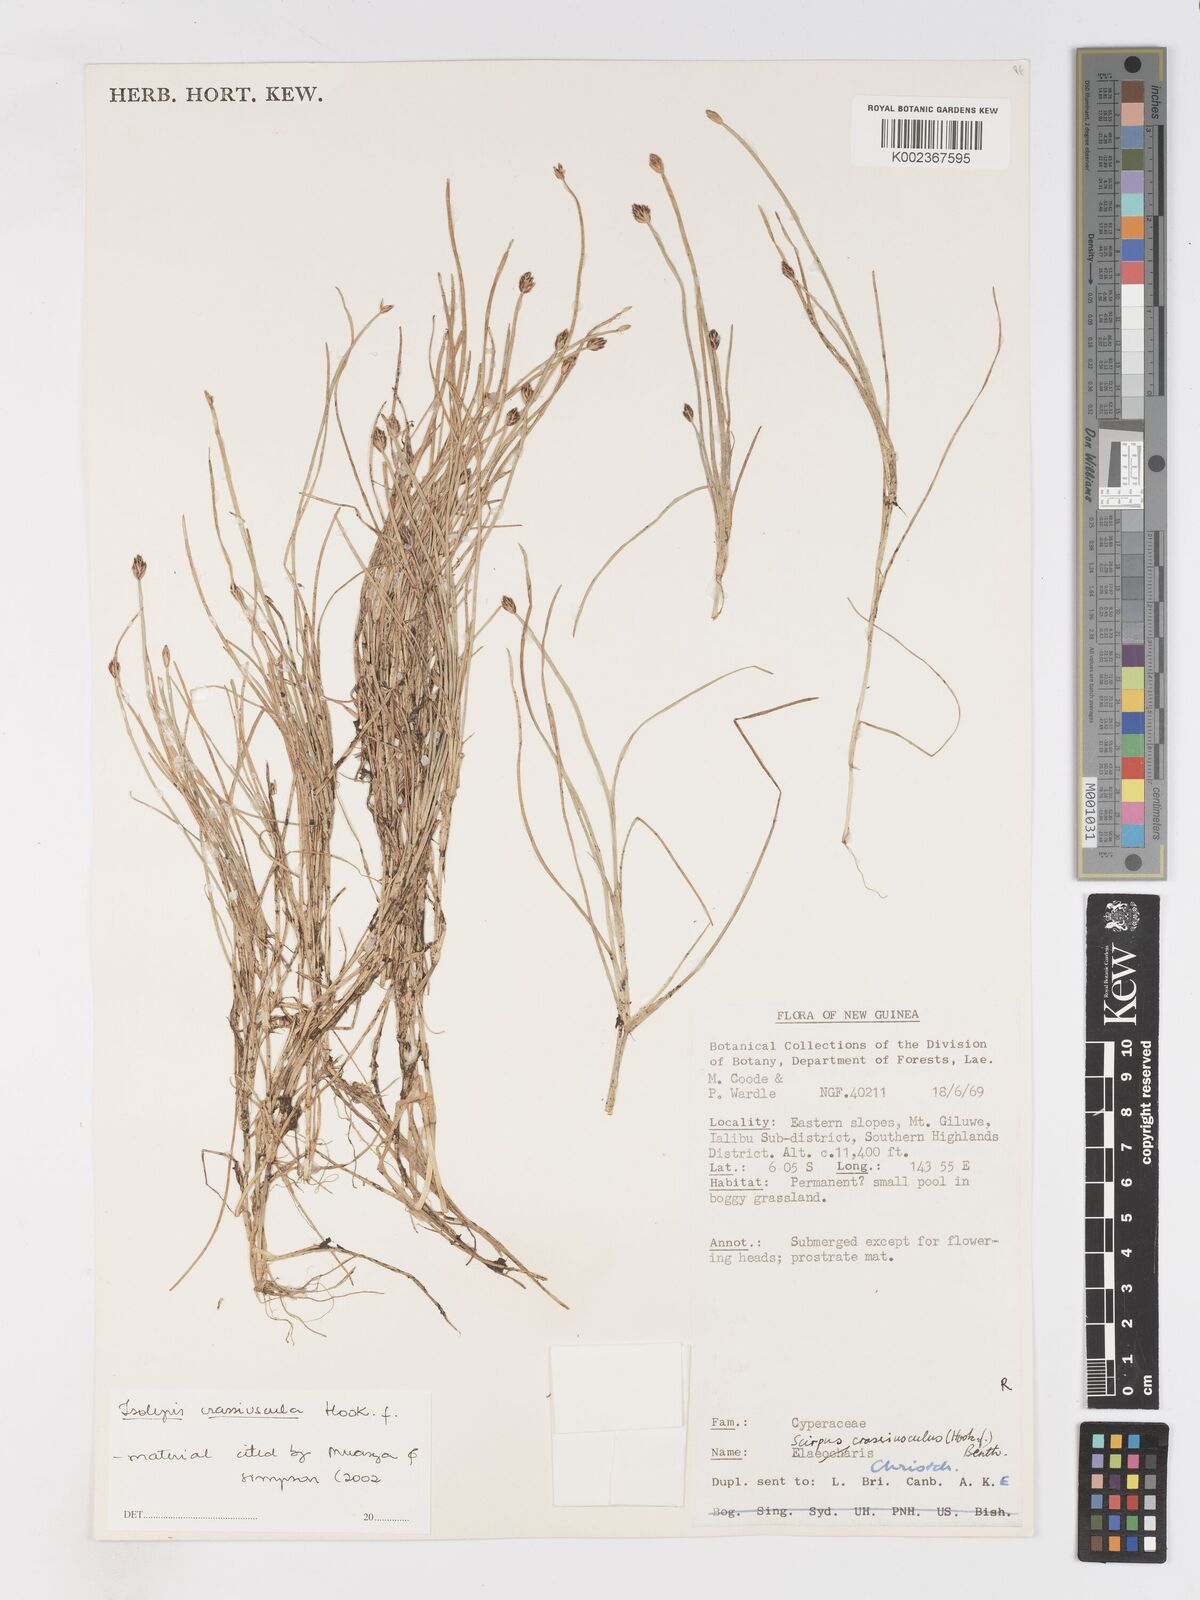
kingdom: Plantae
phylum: Tracheophyta
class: Liliopsida
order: Poales
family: Cyperaceae
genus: Isolepis
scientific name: Isolepis crassiuscula
